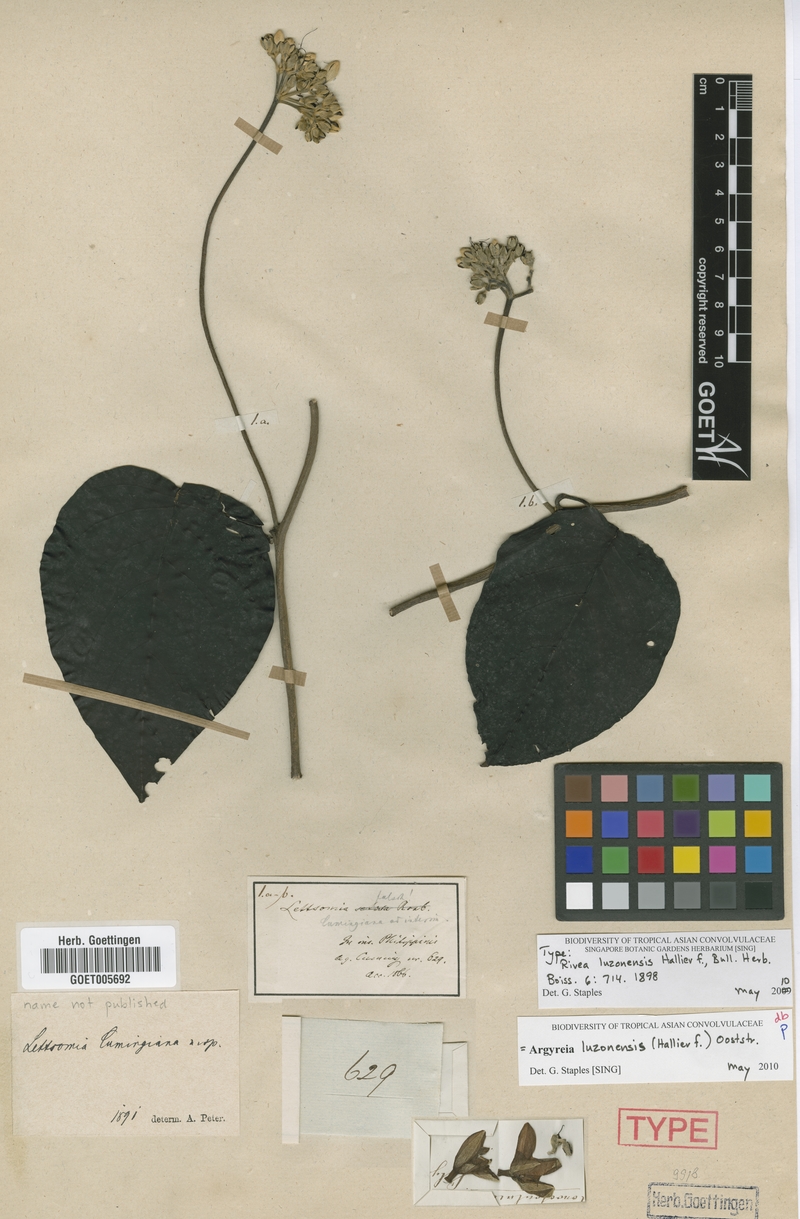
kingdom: Plantae
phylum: Tracheophyta
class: Magnoliopsida
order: Solanales
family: Convolvulaceae
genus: Argyreia
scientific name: Argyreia luzonensis
